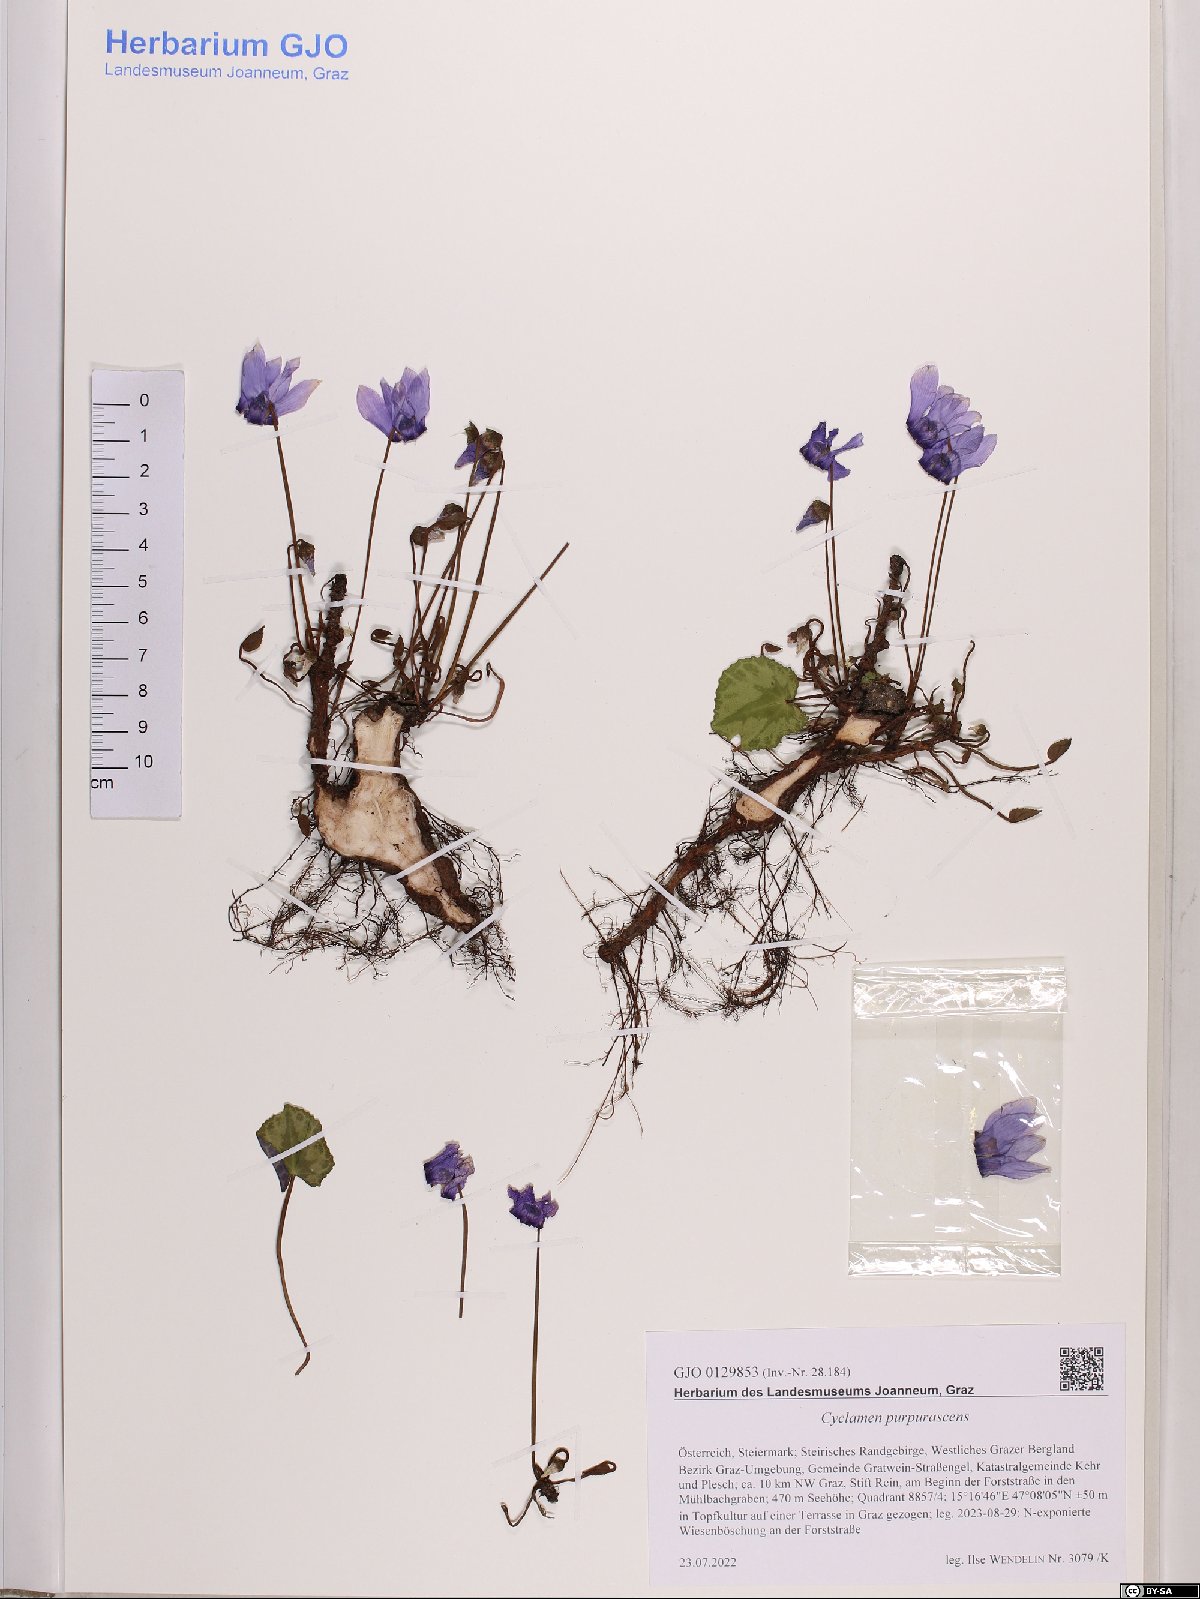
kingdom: Plantae
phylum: Tracheophyta
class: Magnoliopsida
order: Ericales
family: Primulaceae
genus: Cyclamen
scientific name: Cyclamen purpurascens
